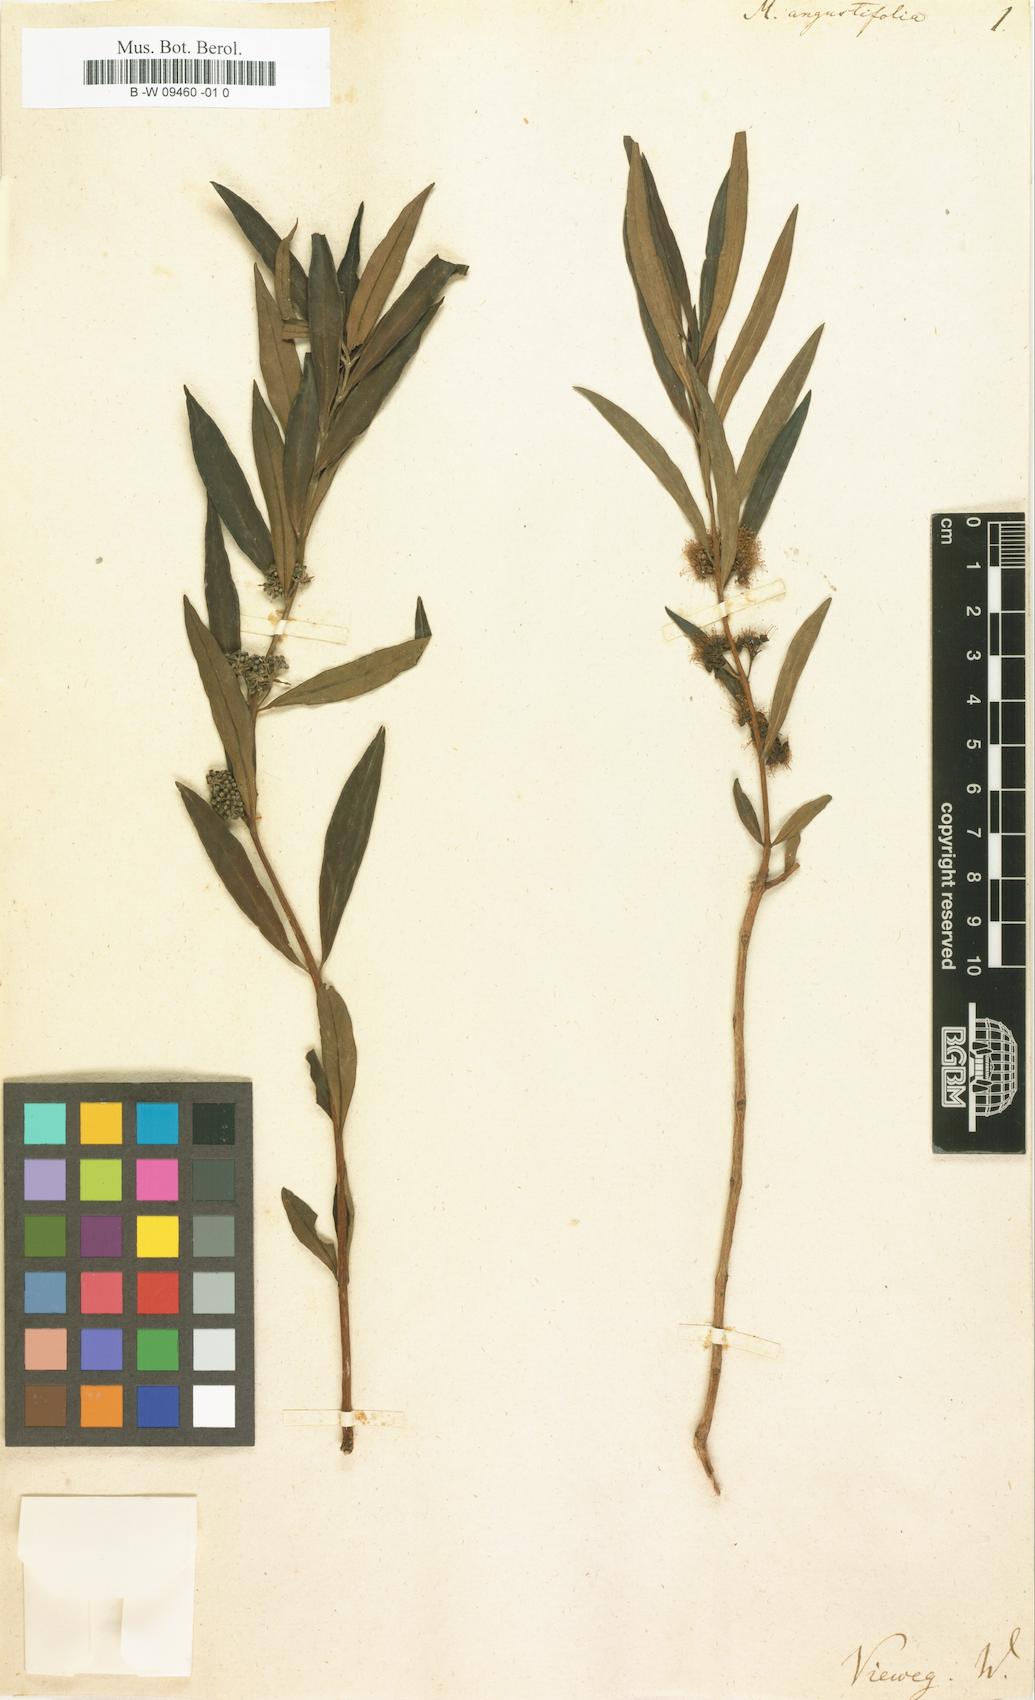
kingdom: Plantae
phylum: Tracheophyta
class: Magnoliopsida
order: Myrtales
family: Myrtaceae
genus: Callistemon
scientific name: Callistemon lanceolatus
